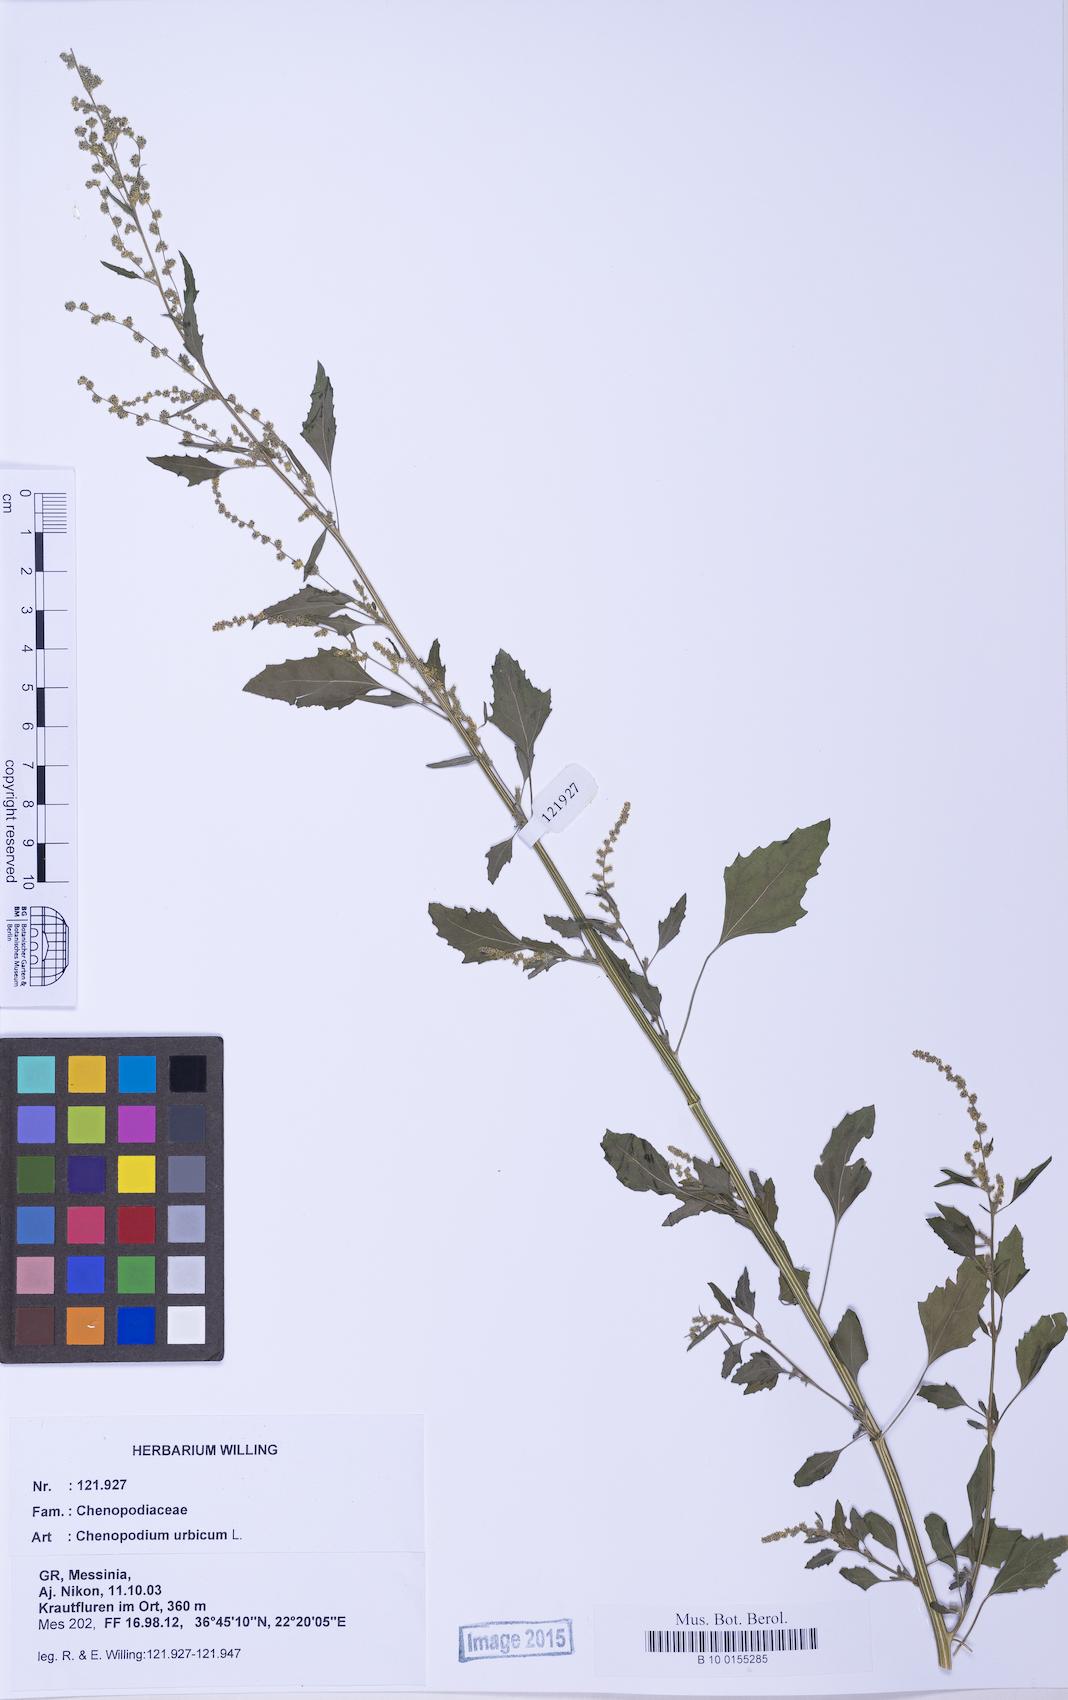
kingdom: Plantae
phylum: Tracheophyta
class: Magnoliopsida
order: Caryophyllales
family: Amaranthaceae
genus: Chenopodium
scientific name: Chenopodium album
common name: Fat-hen
